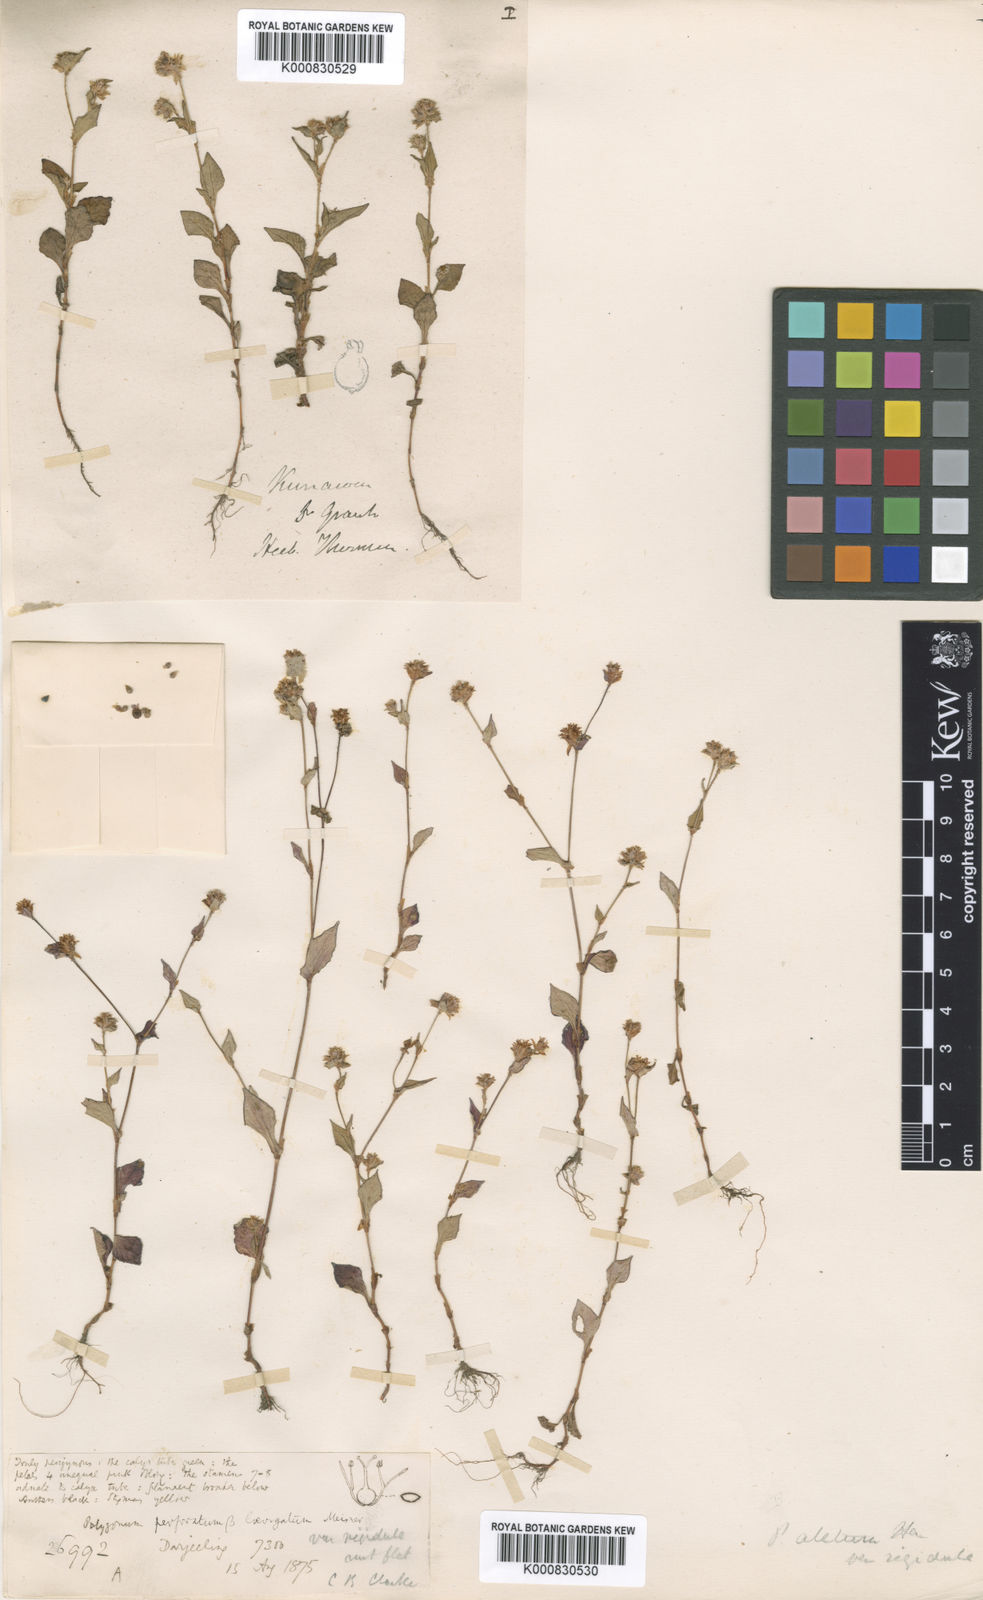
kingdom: Plantae
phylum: Tracheophyta
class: Magnoliopsida
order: Caryophyllales
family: Polygonaceae
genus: Polygonum
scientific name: Polygonum
